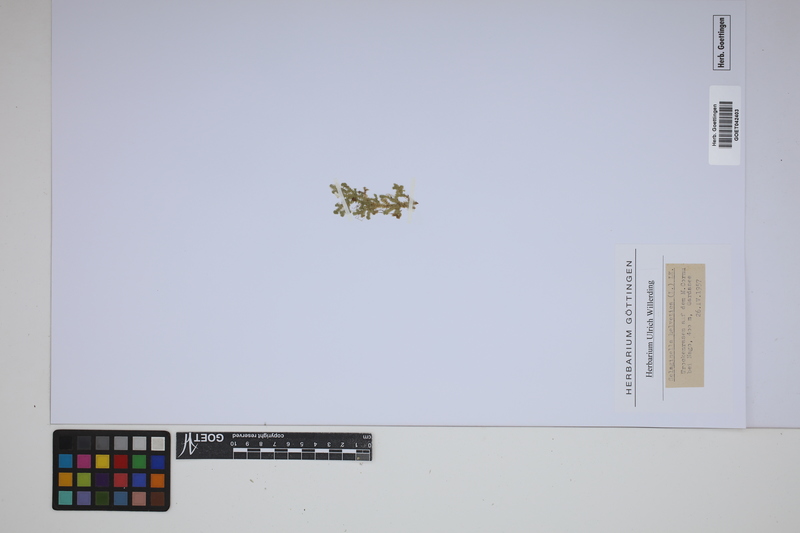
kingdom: Plantae
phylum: Tracheophyta
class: Lycopodiopsida
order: Selaginellales
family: Selaginellaceae
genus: Selaginella
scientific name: Selaginella helvetica
